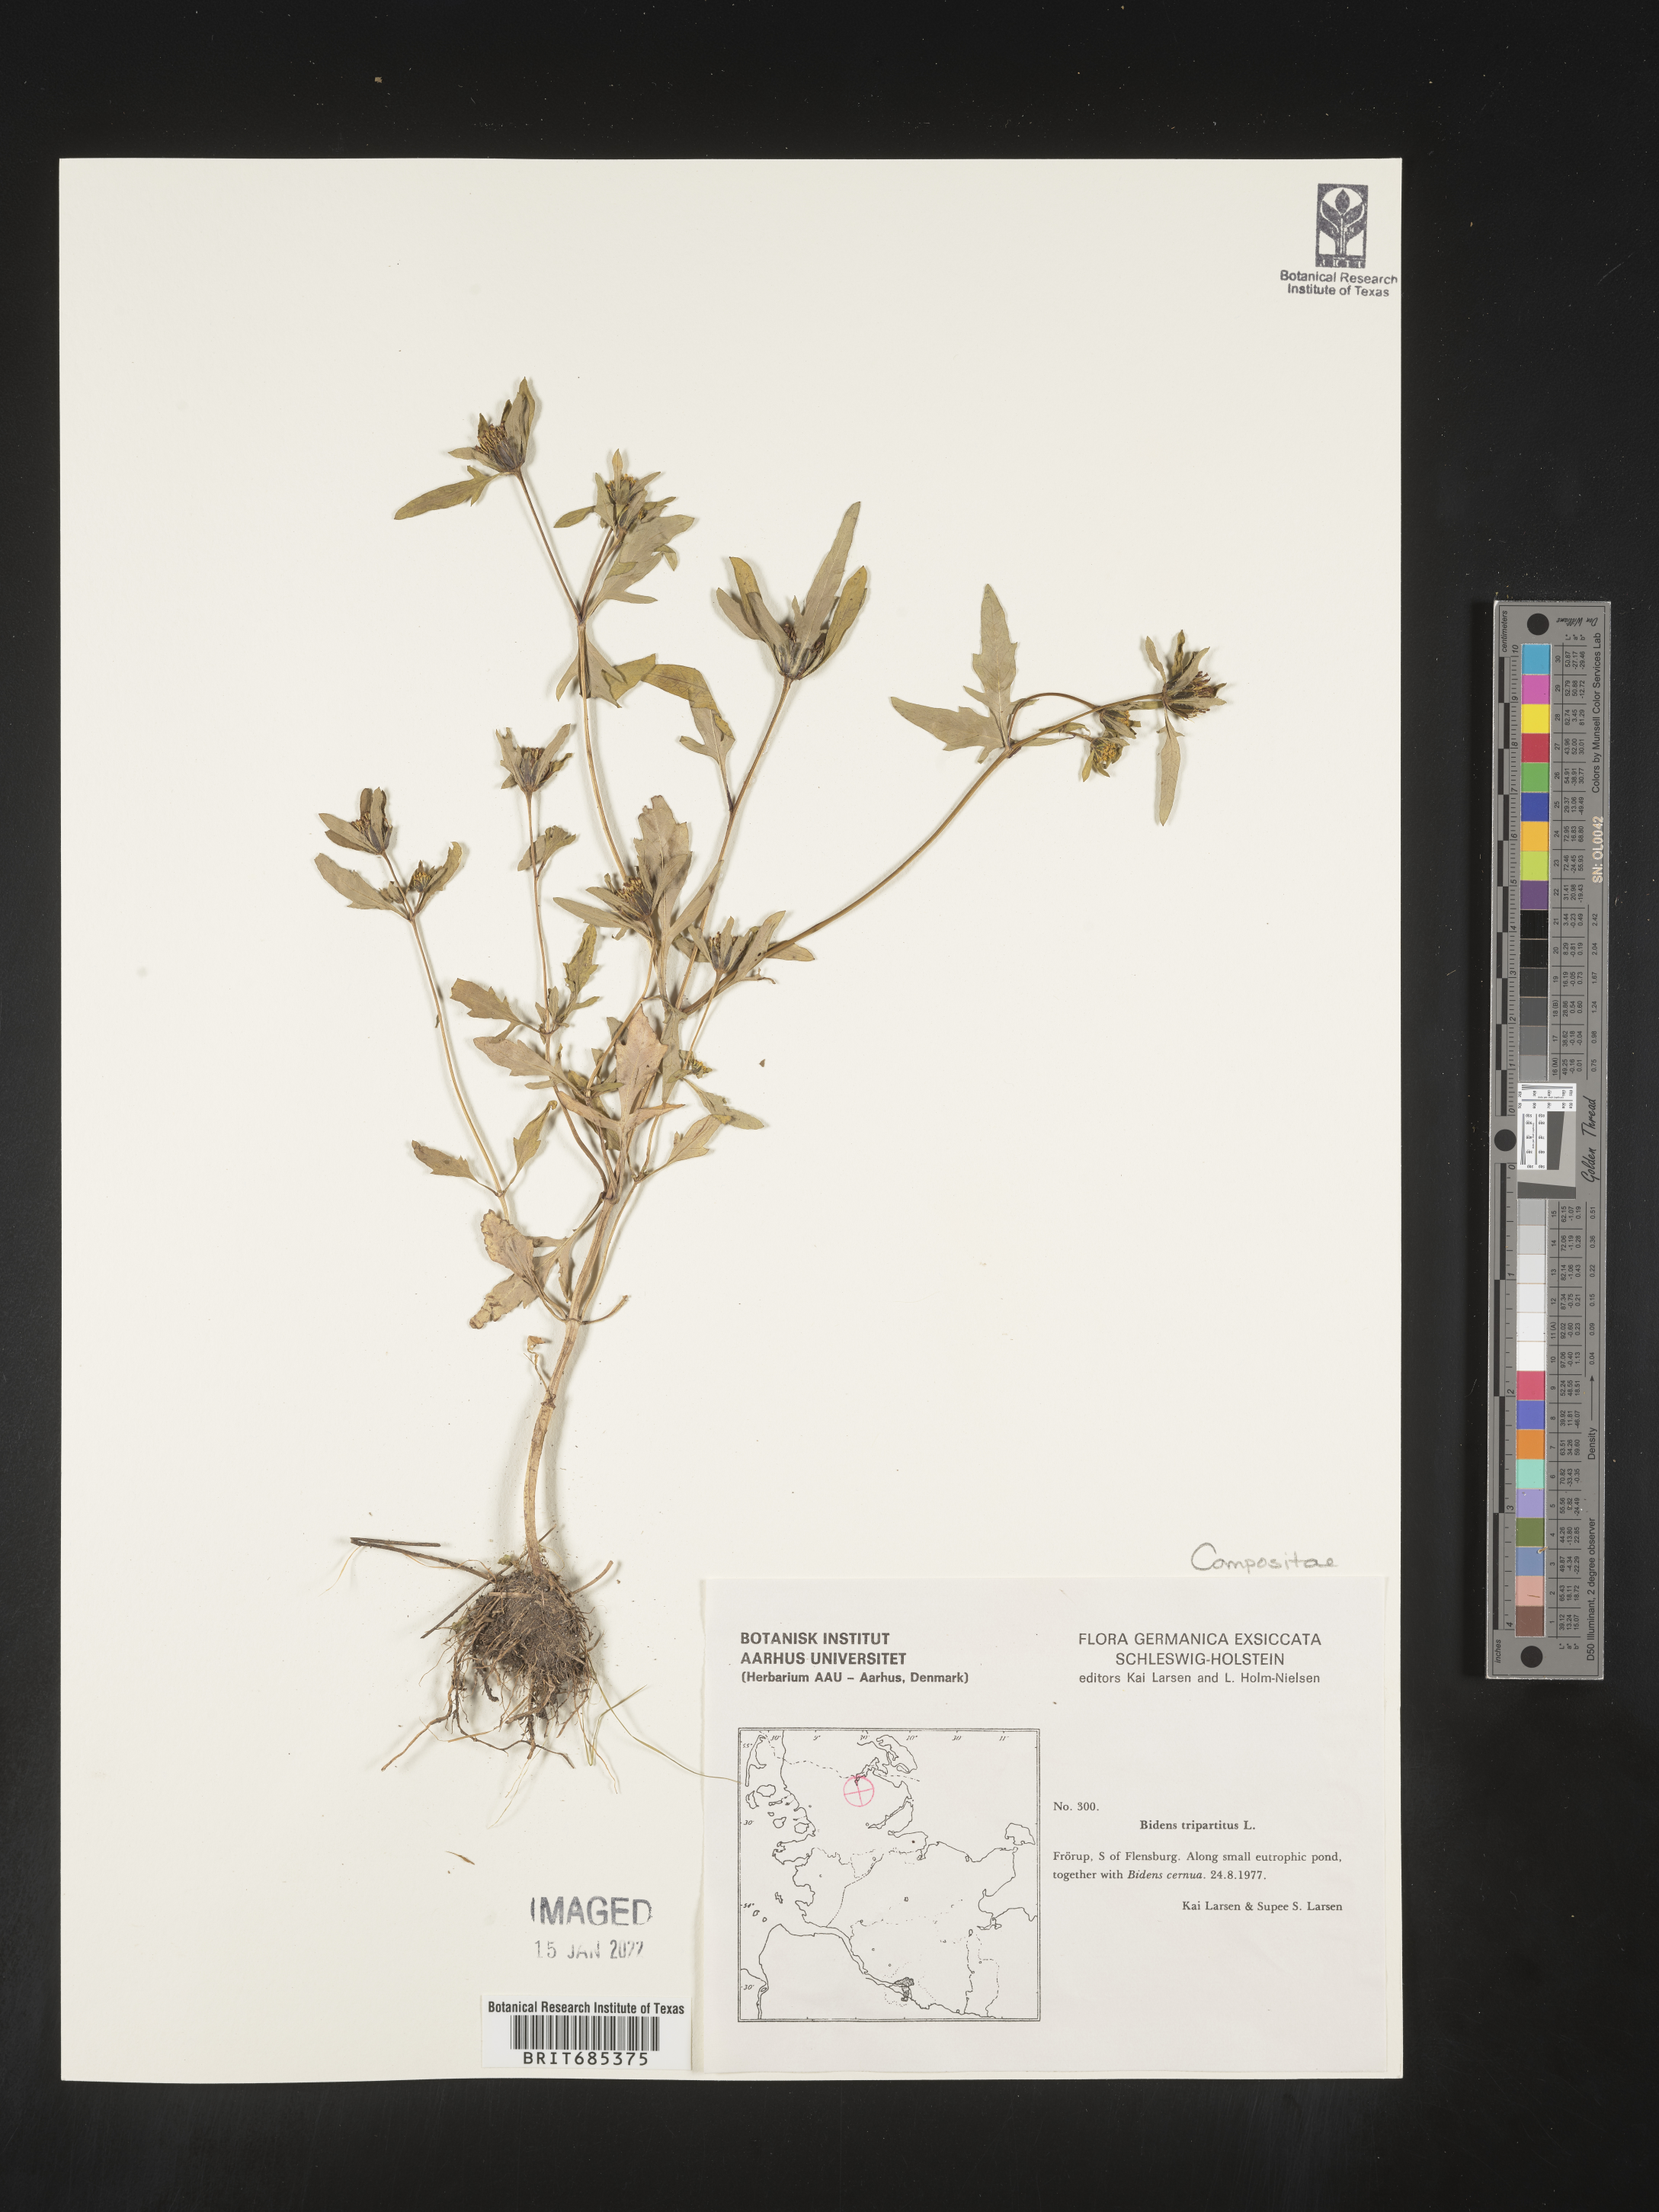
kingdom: Plantae
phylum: Tracheophyta
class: Magnoliopsida
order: Asterales
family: Asteraceae
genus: Bidens
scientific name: Bidens
